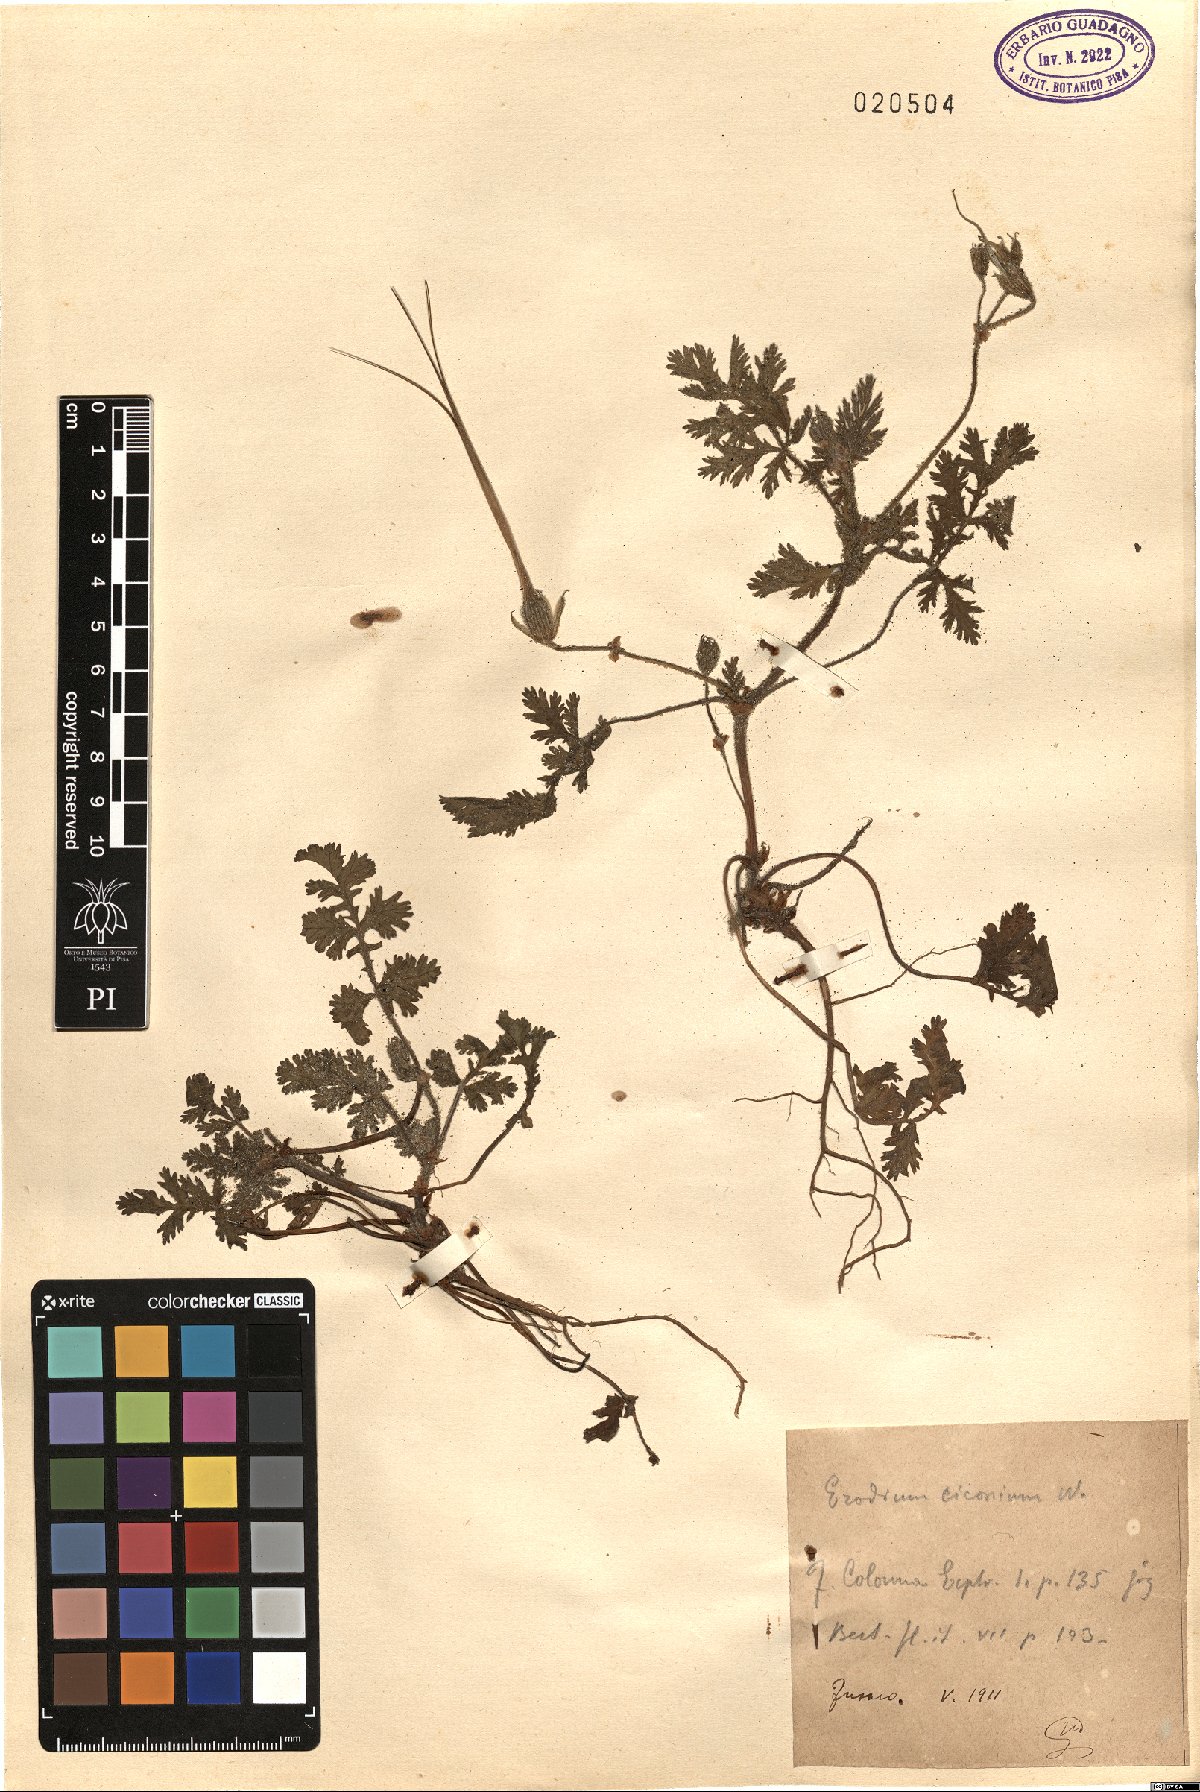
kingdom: Plantae
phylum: Tracheophyta
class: Magnoliopsida
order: Geraniales
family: Geraniaceae
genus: Erodium
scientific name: Erodium ciconium
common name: Common stork's bill
